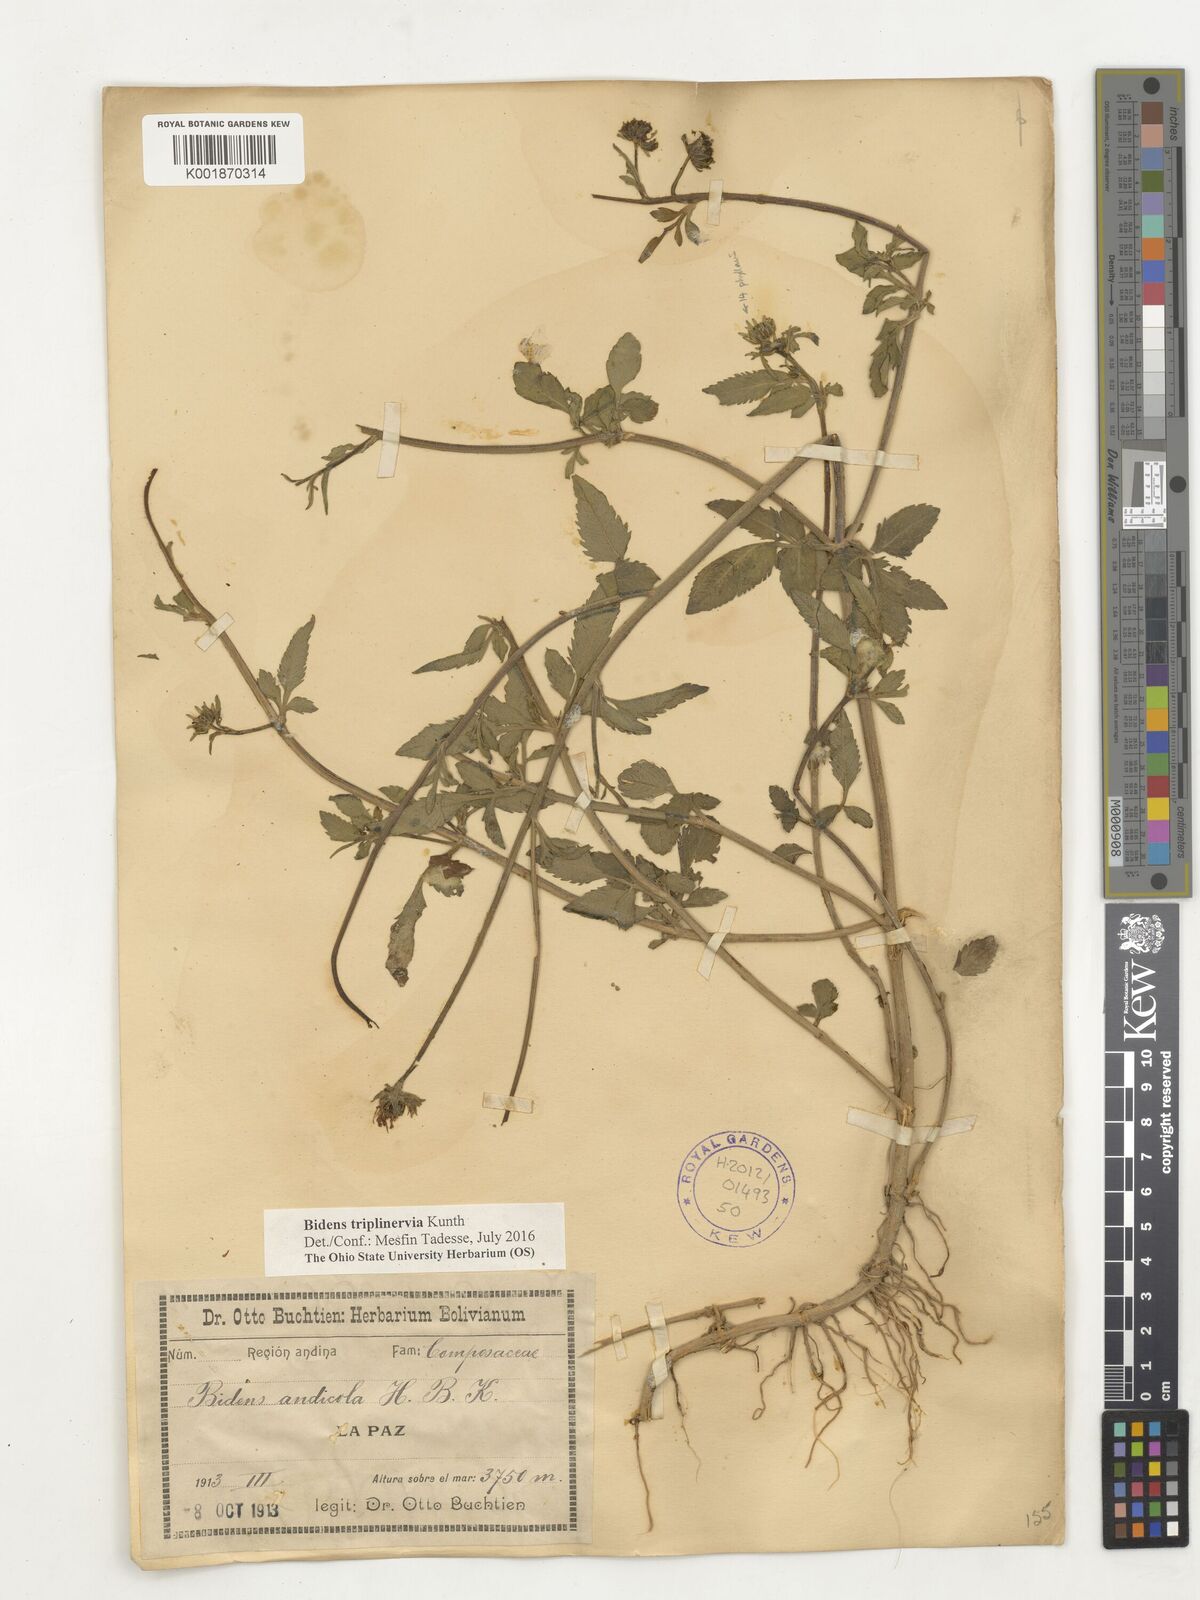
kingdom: Plantae
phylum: Tracheophyta
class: Magnoliopsida
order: Asterales
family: Asteraceae
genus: Bidens
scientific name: Bidens triplinervia
